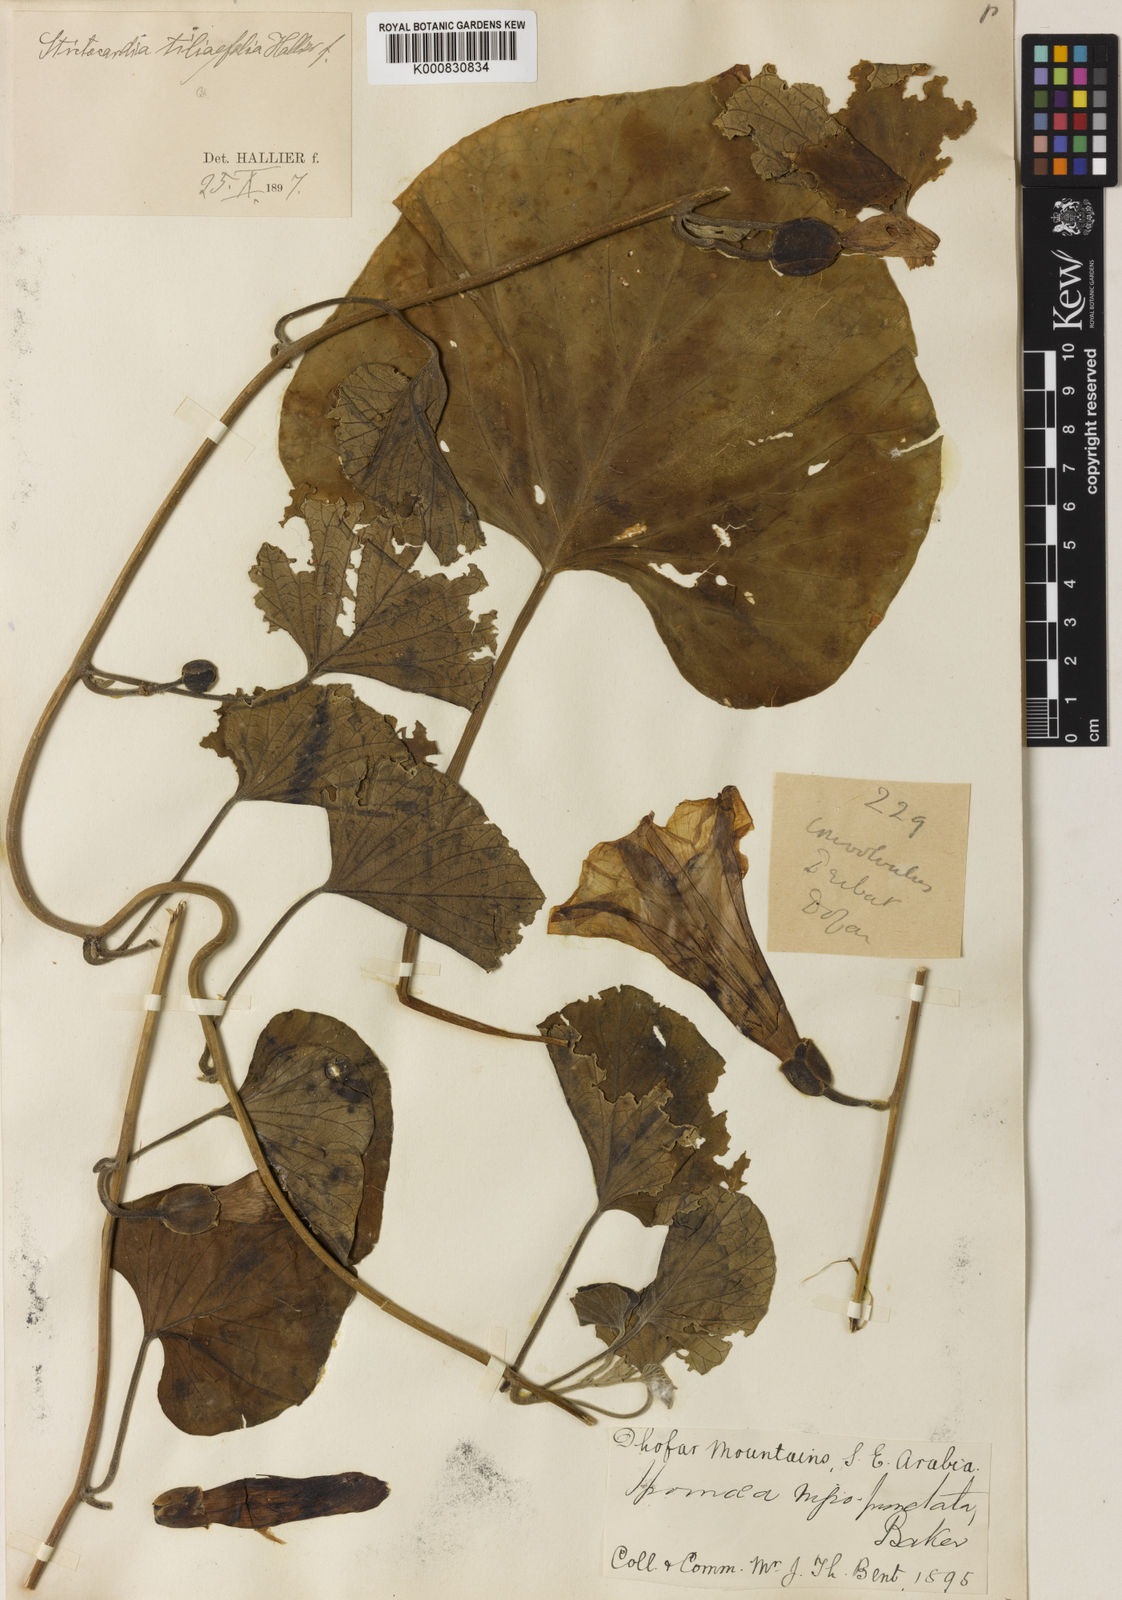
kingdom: Plantae
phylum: Tracheophyta
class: Magnoliopsida
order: Solanales
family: Convolvulaceae
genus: Stictocardia
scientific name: Stictocardia tiliifolia
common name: Spottedheart
